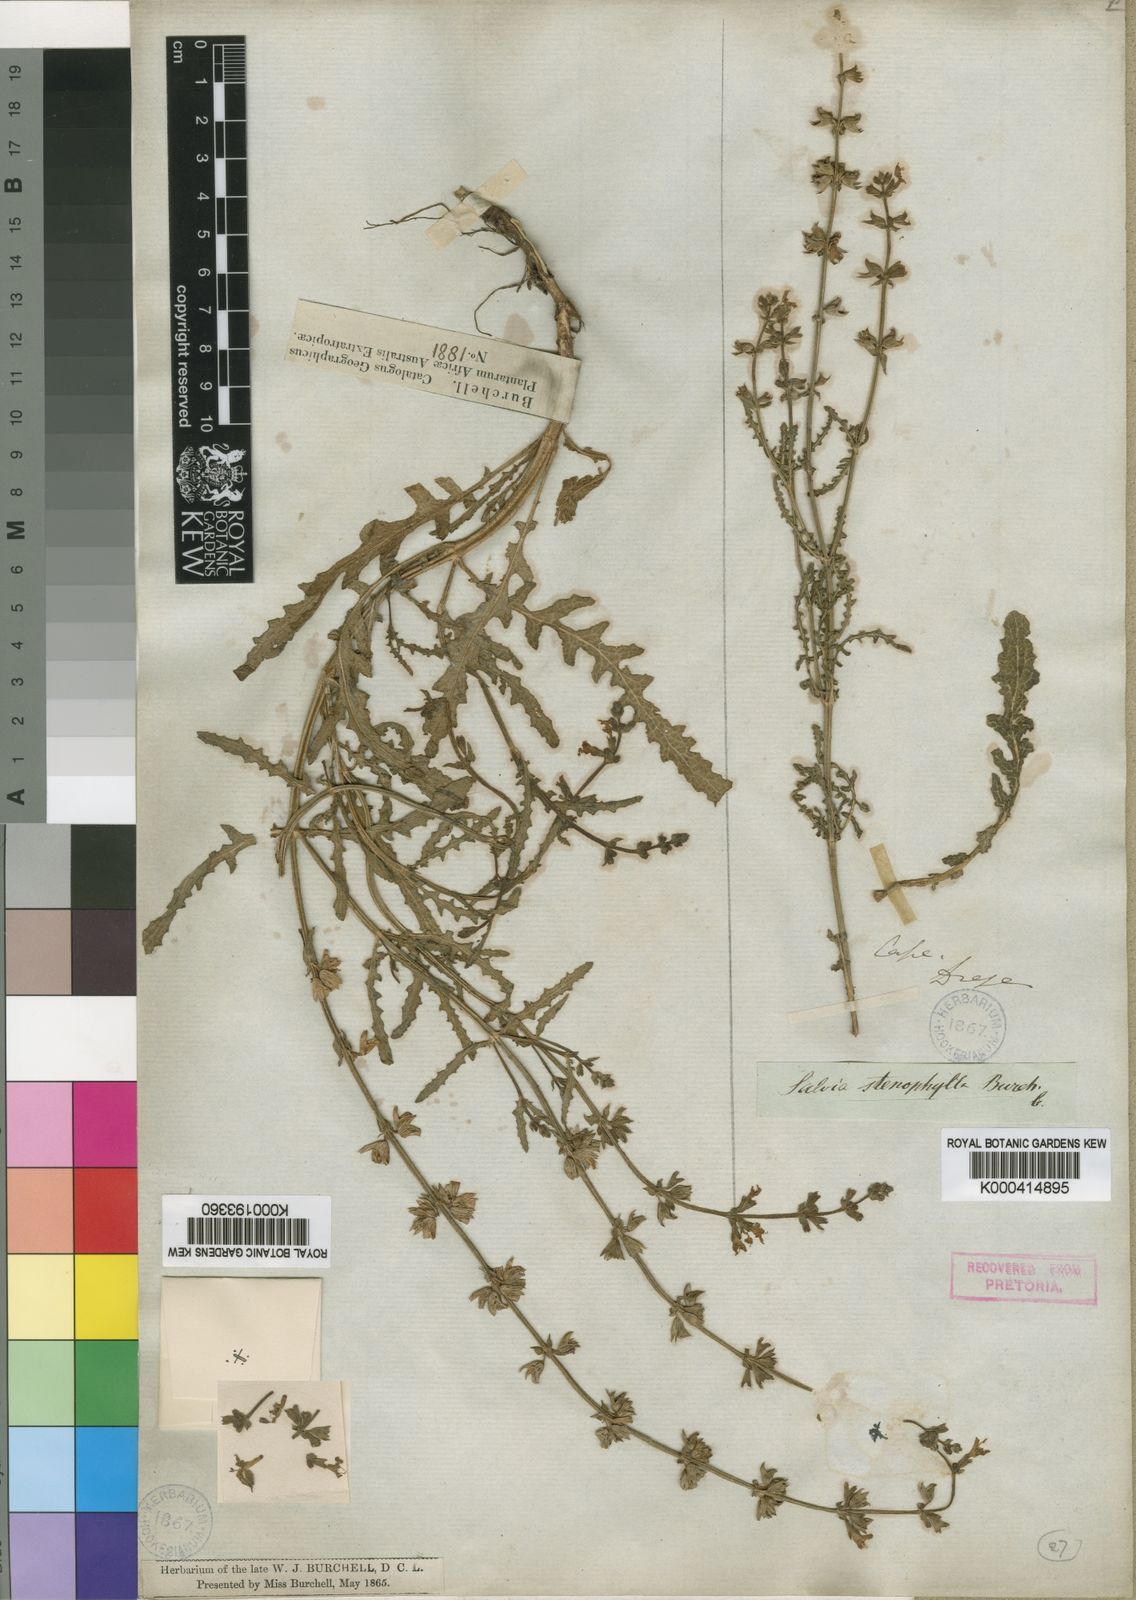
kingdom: Plantae
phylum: Tracheophyta
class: Magnoliopsida
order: Lamiales
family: Lamiaceae
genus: Salvia
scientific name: Salvia stenophylla
